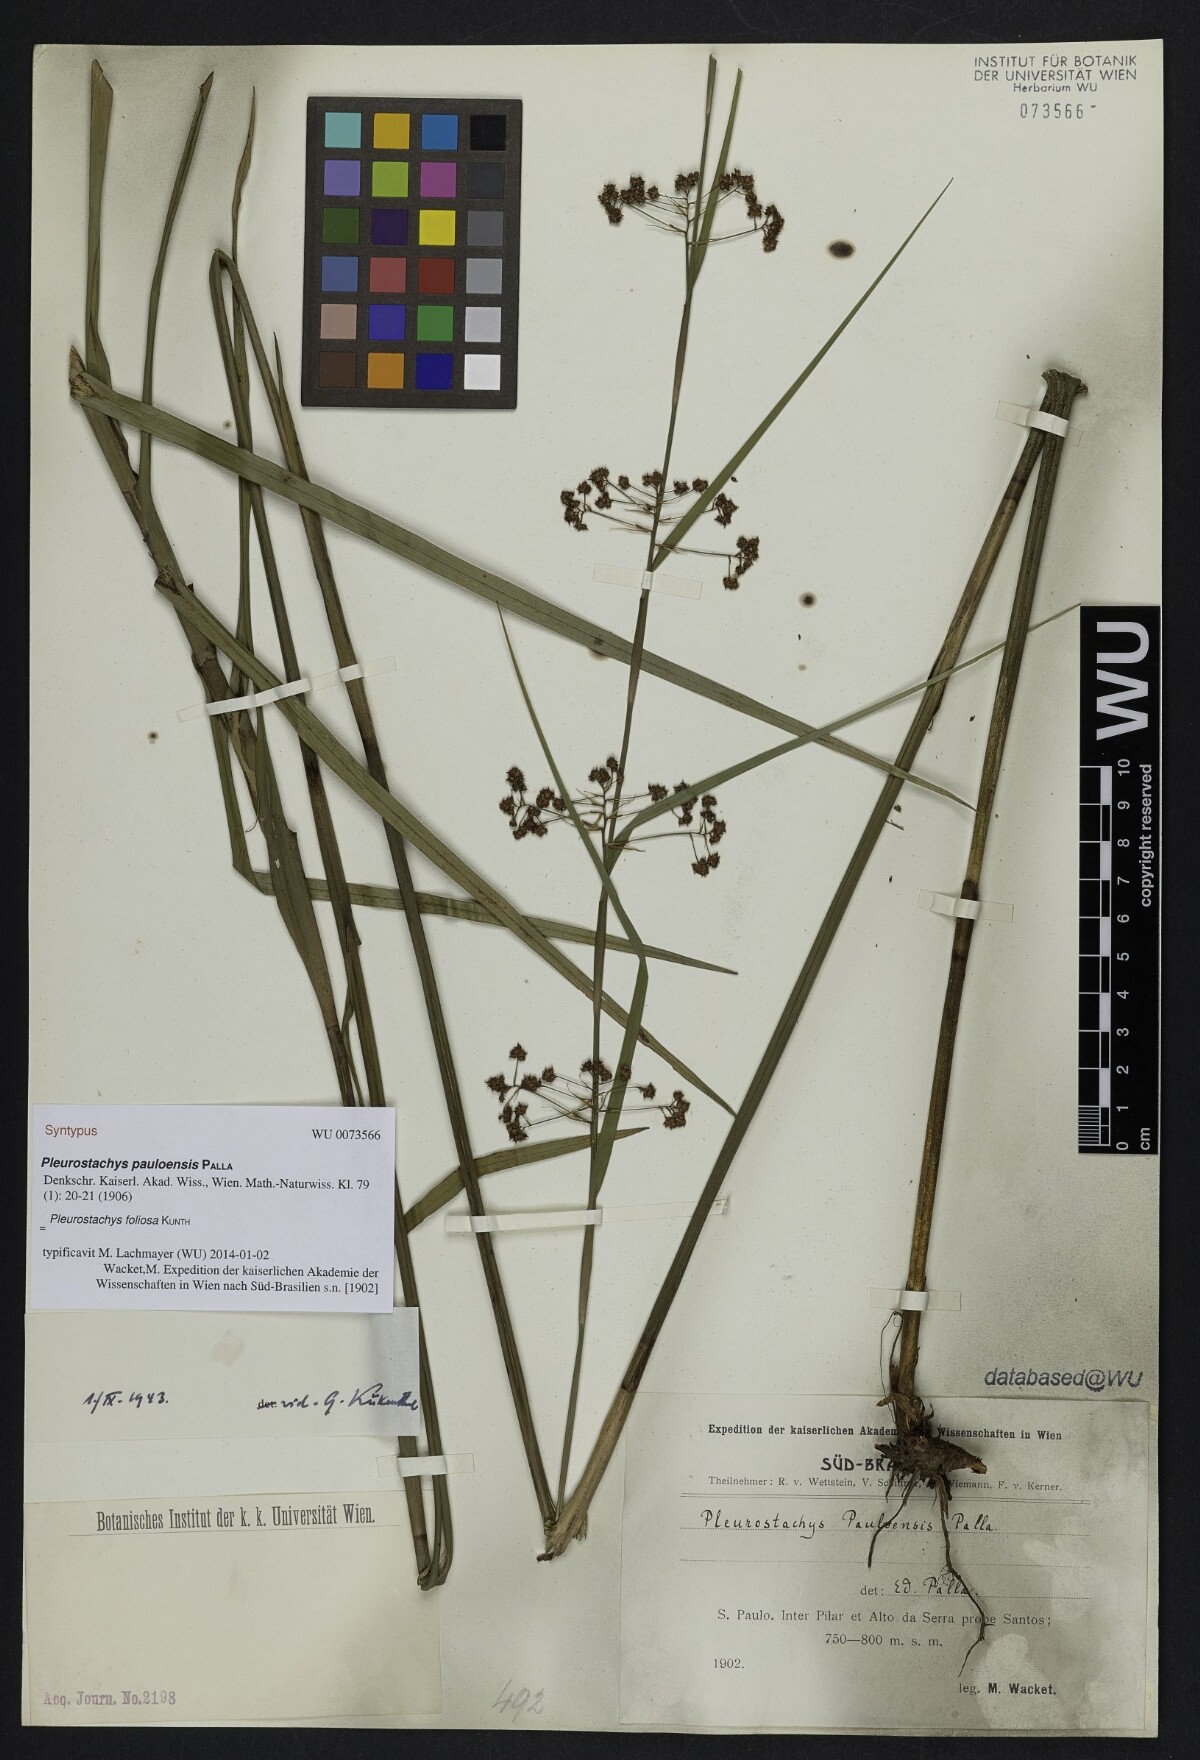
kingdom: Plantae
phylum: Tracheophyta
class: Liliopsida
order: Poales
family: Cyperaceae
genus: Rhynchospora
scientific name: Rhynchospora foliosa
